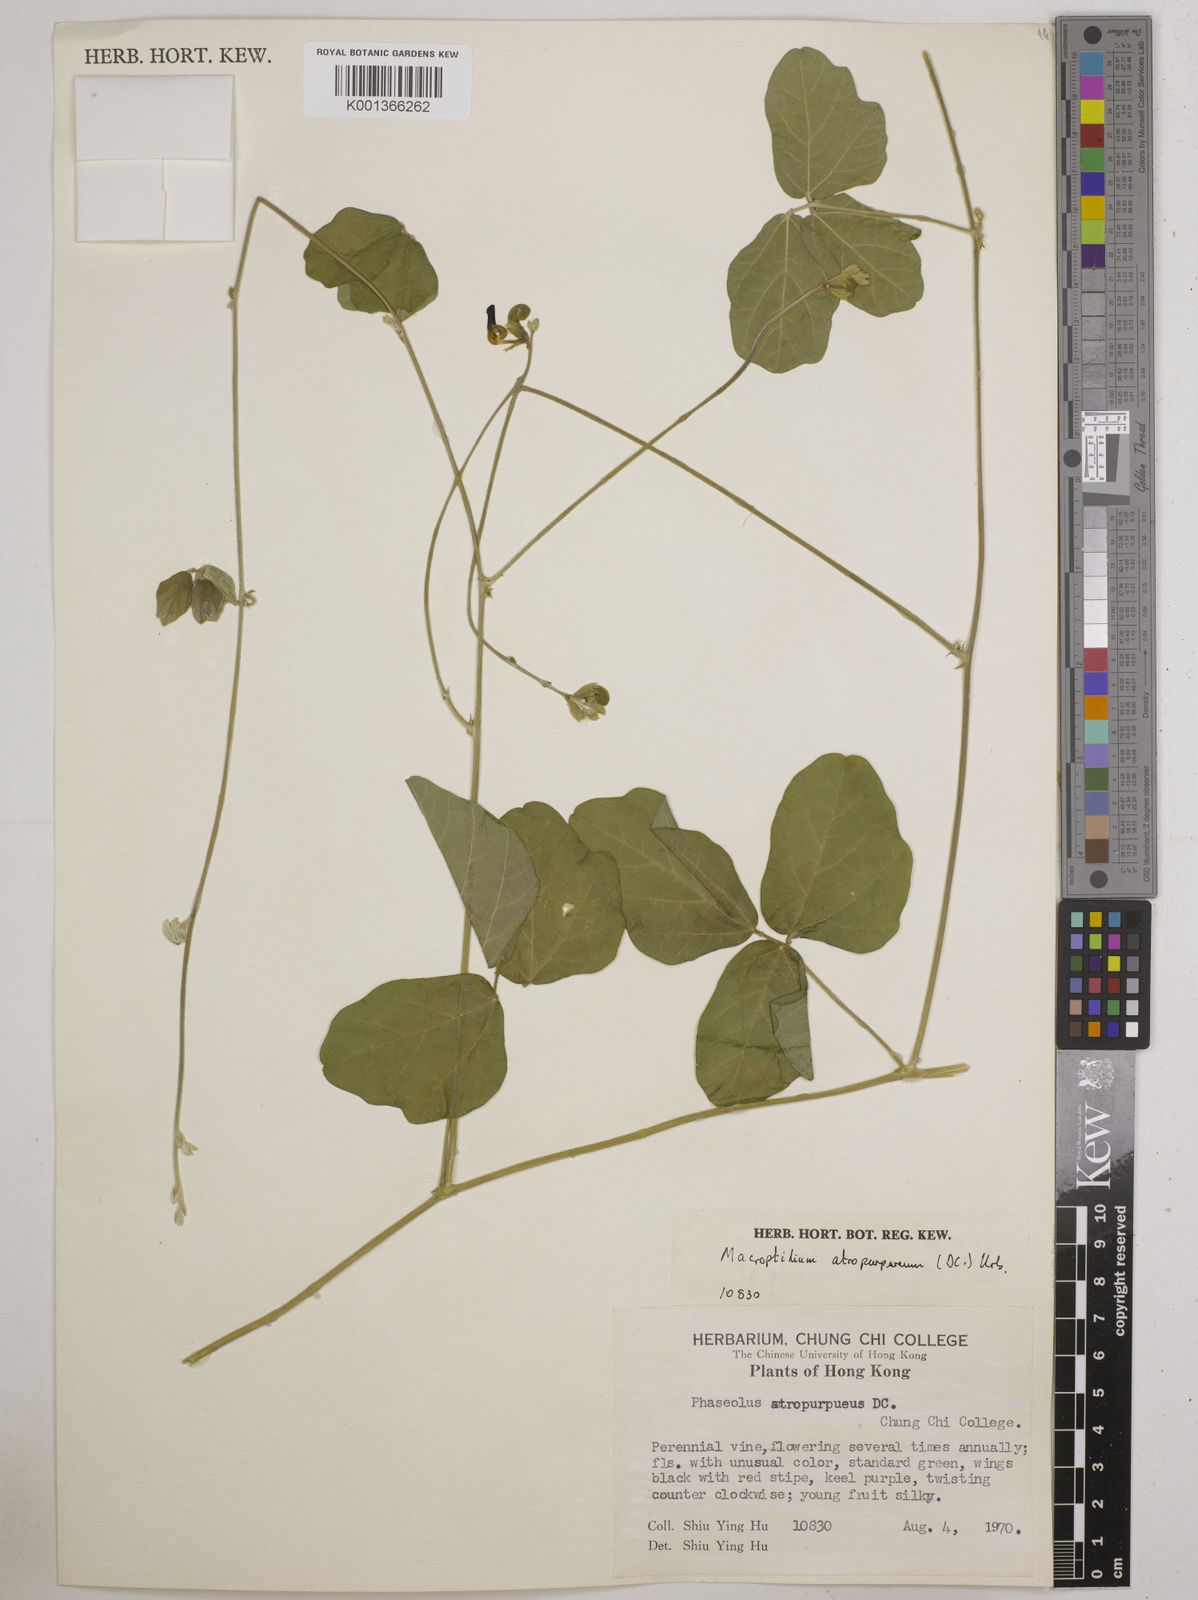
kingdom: Plantae
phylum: Tracheophyta
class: Magnoliopsida
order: Fabales
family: Fabaceae
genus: Macroptilium
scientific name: Macroptilium atropurpureum
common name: Purple bushbean
